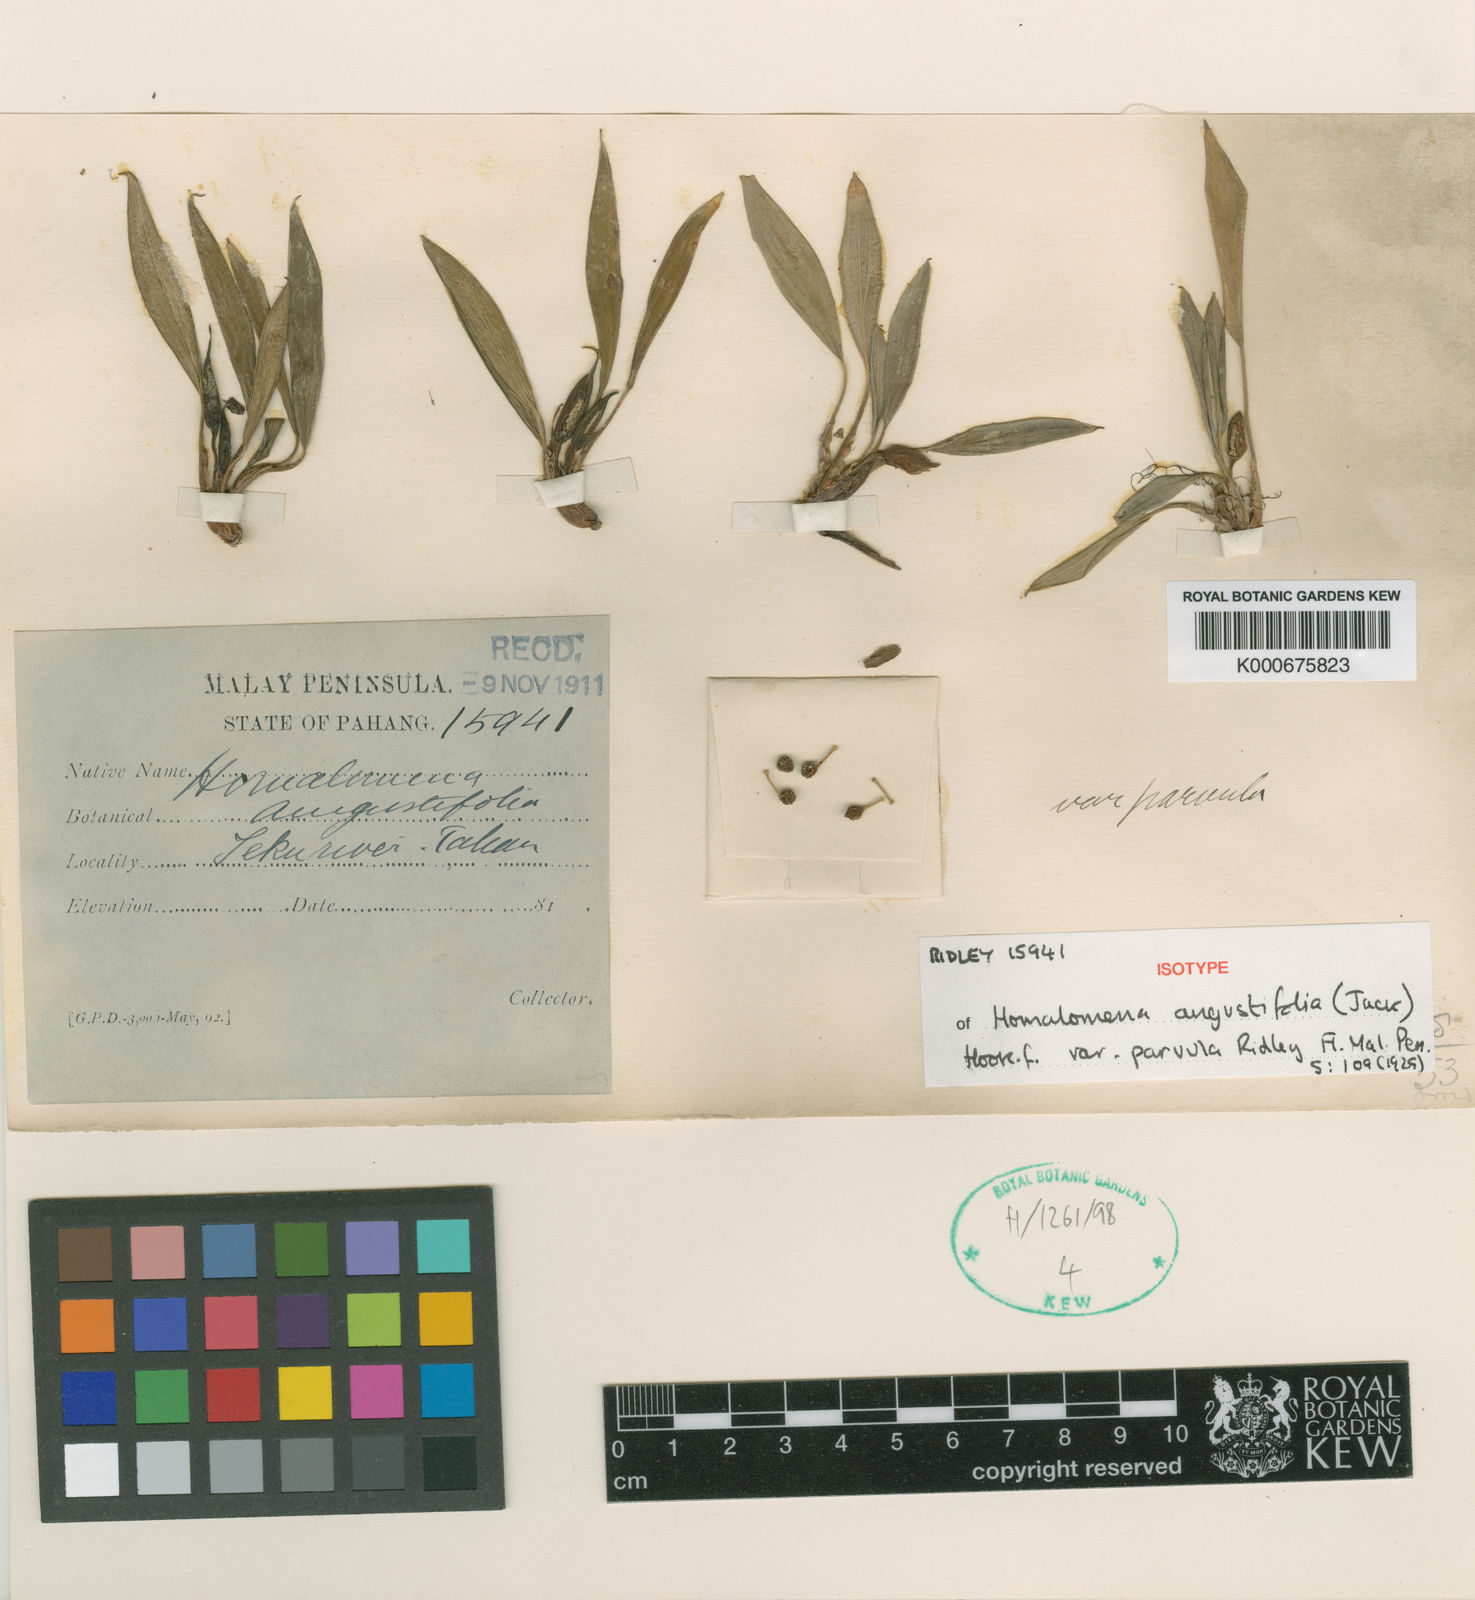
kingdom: Plantae
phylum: Tracheophyta
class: Liliopsida
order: Alismatales
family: Araceae
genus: Homalomena
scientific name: Homalomena humilis
